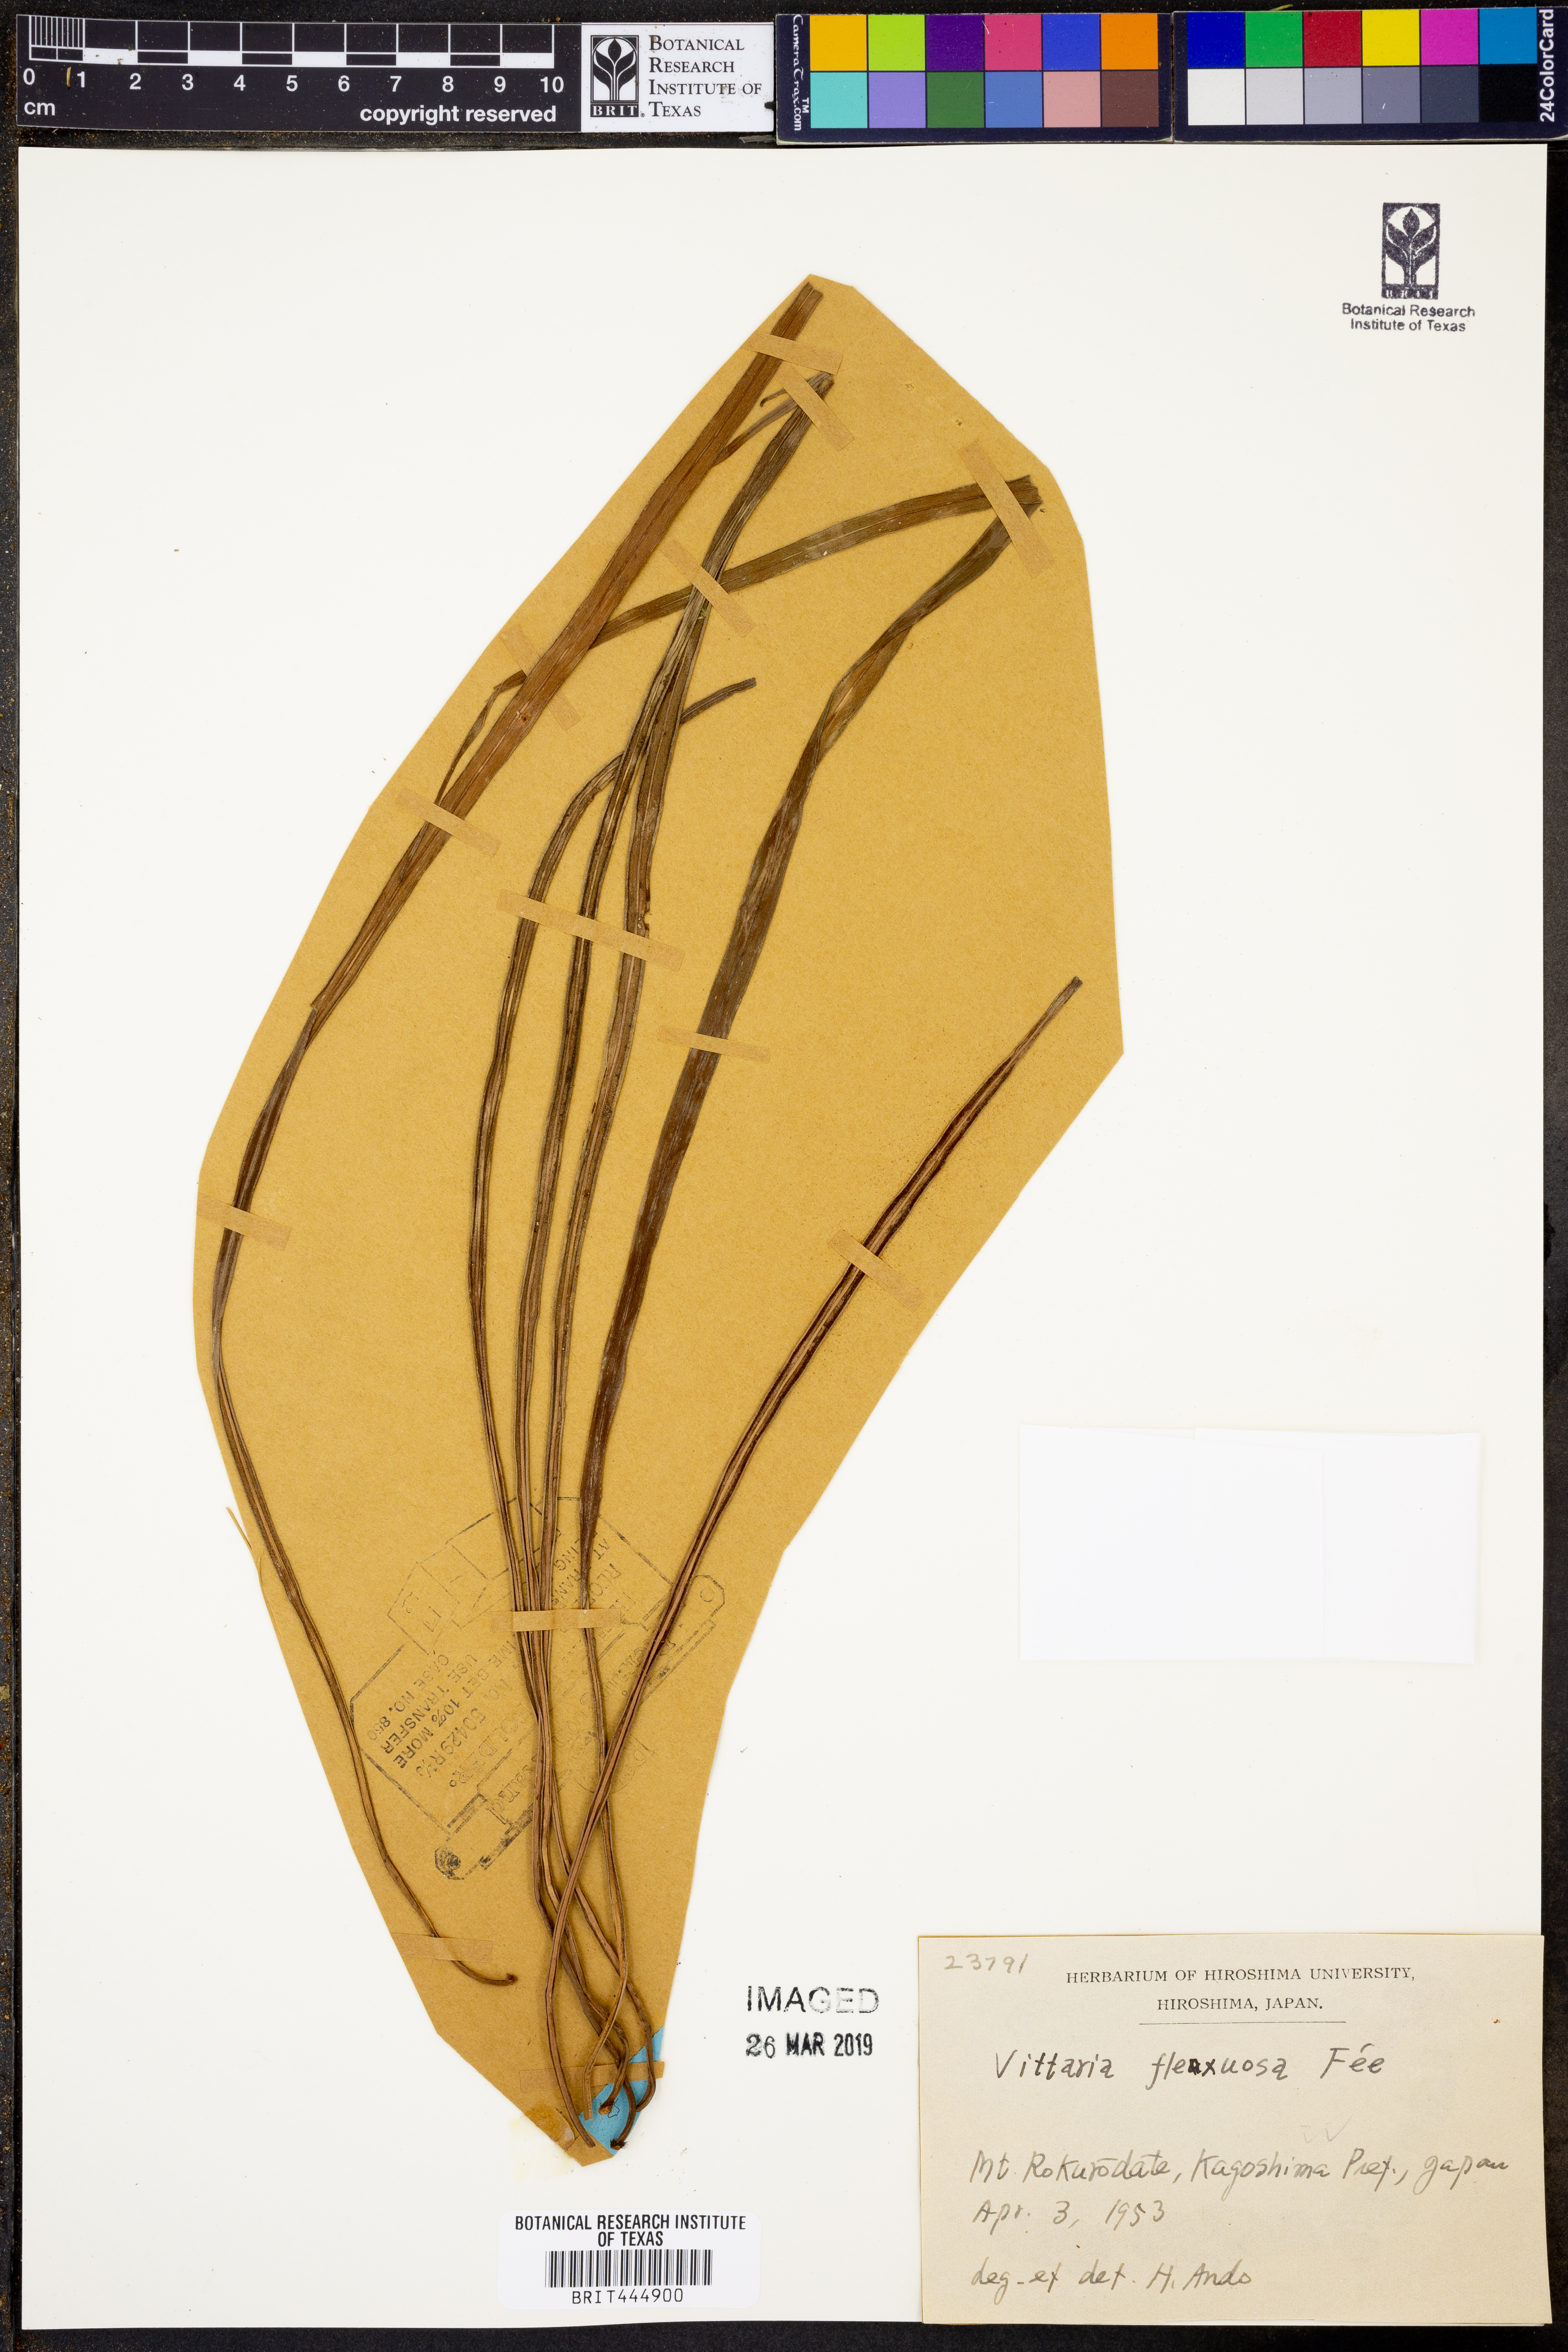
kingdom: Plantae
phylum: Tracheophyta
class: Polypodiopsida
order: Polypodiales
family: Pteridaceae
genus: Haplopteris
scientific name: Haplopteris flexuosa
